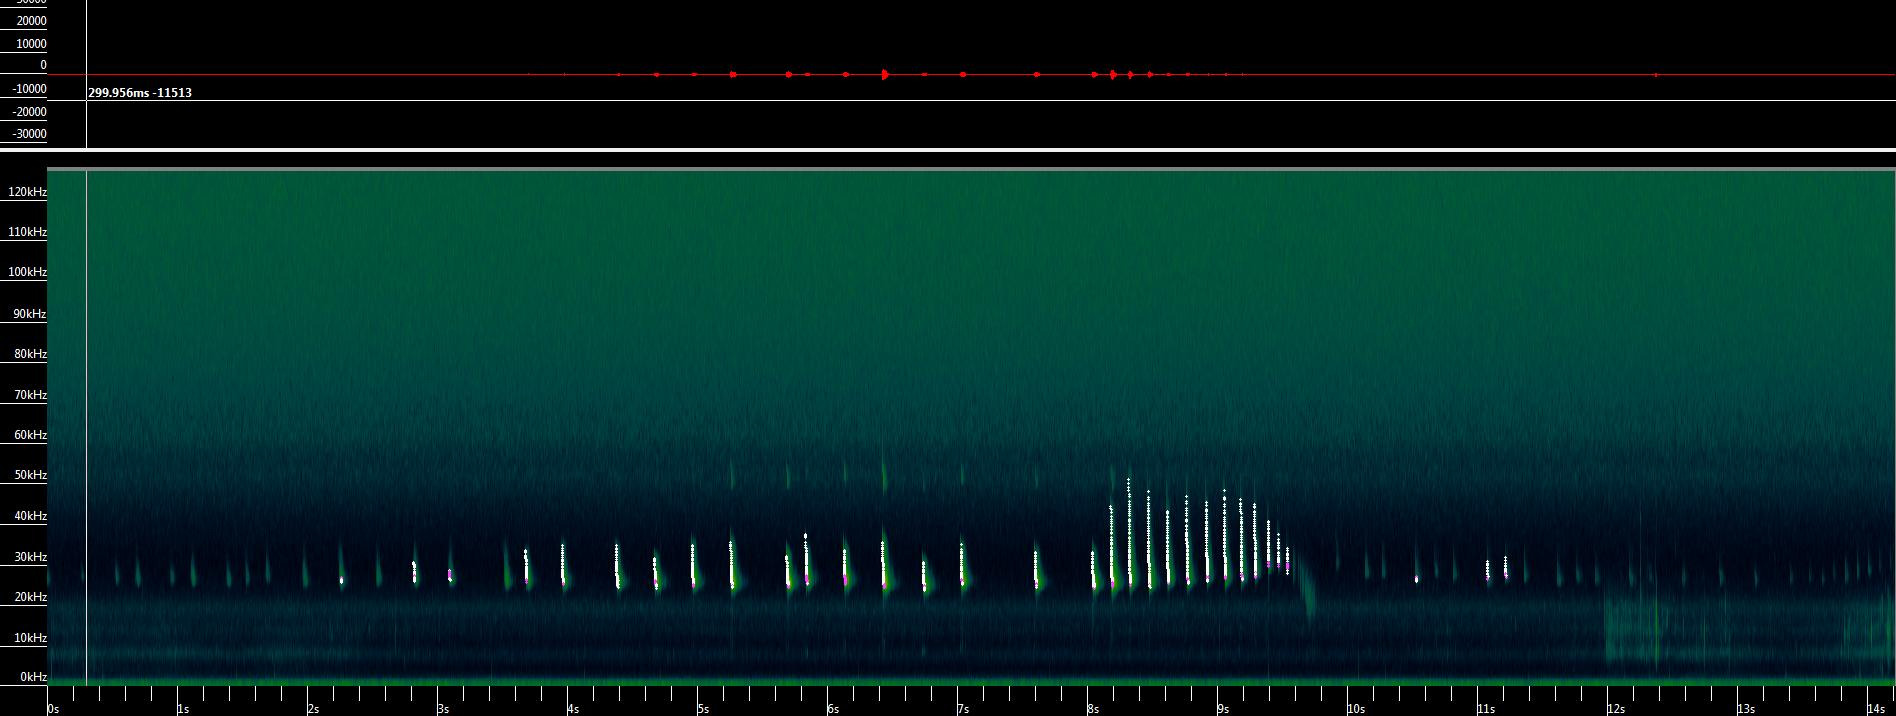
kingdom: Animalia
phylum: Chordata
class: Mammalia
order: Chiroptera
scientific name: Chiroptera
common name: Flagermus
